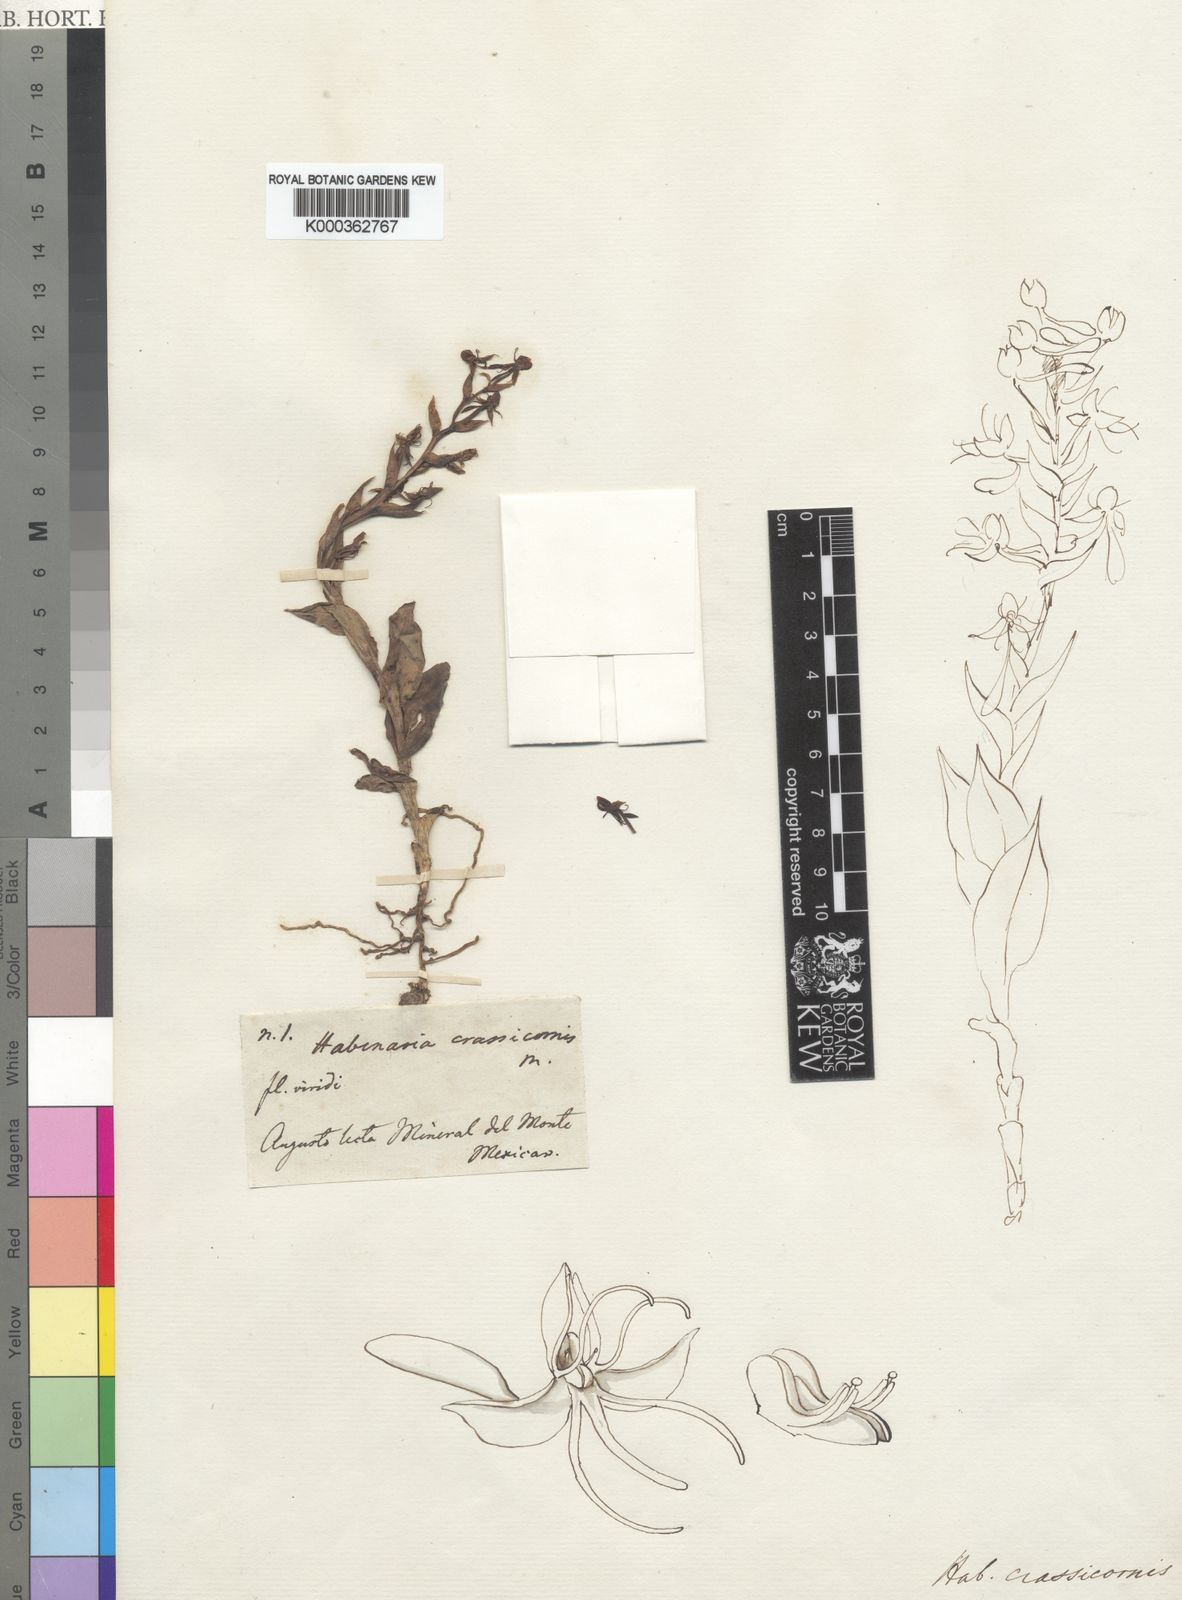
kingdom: Plantae
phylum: Tracheophyta
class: Liliopsida
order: Asparagales
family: Orchidaceae
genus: Habenaria
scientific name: Habenaria crassicornis
